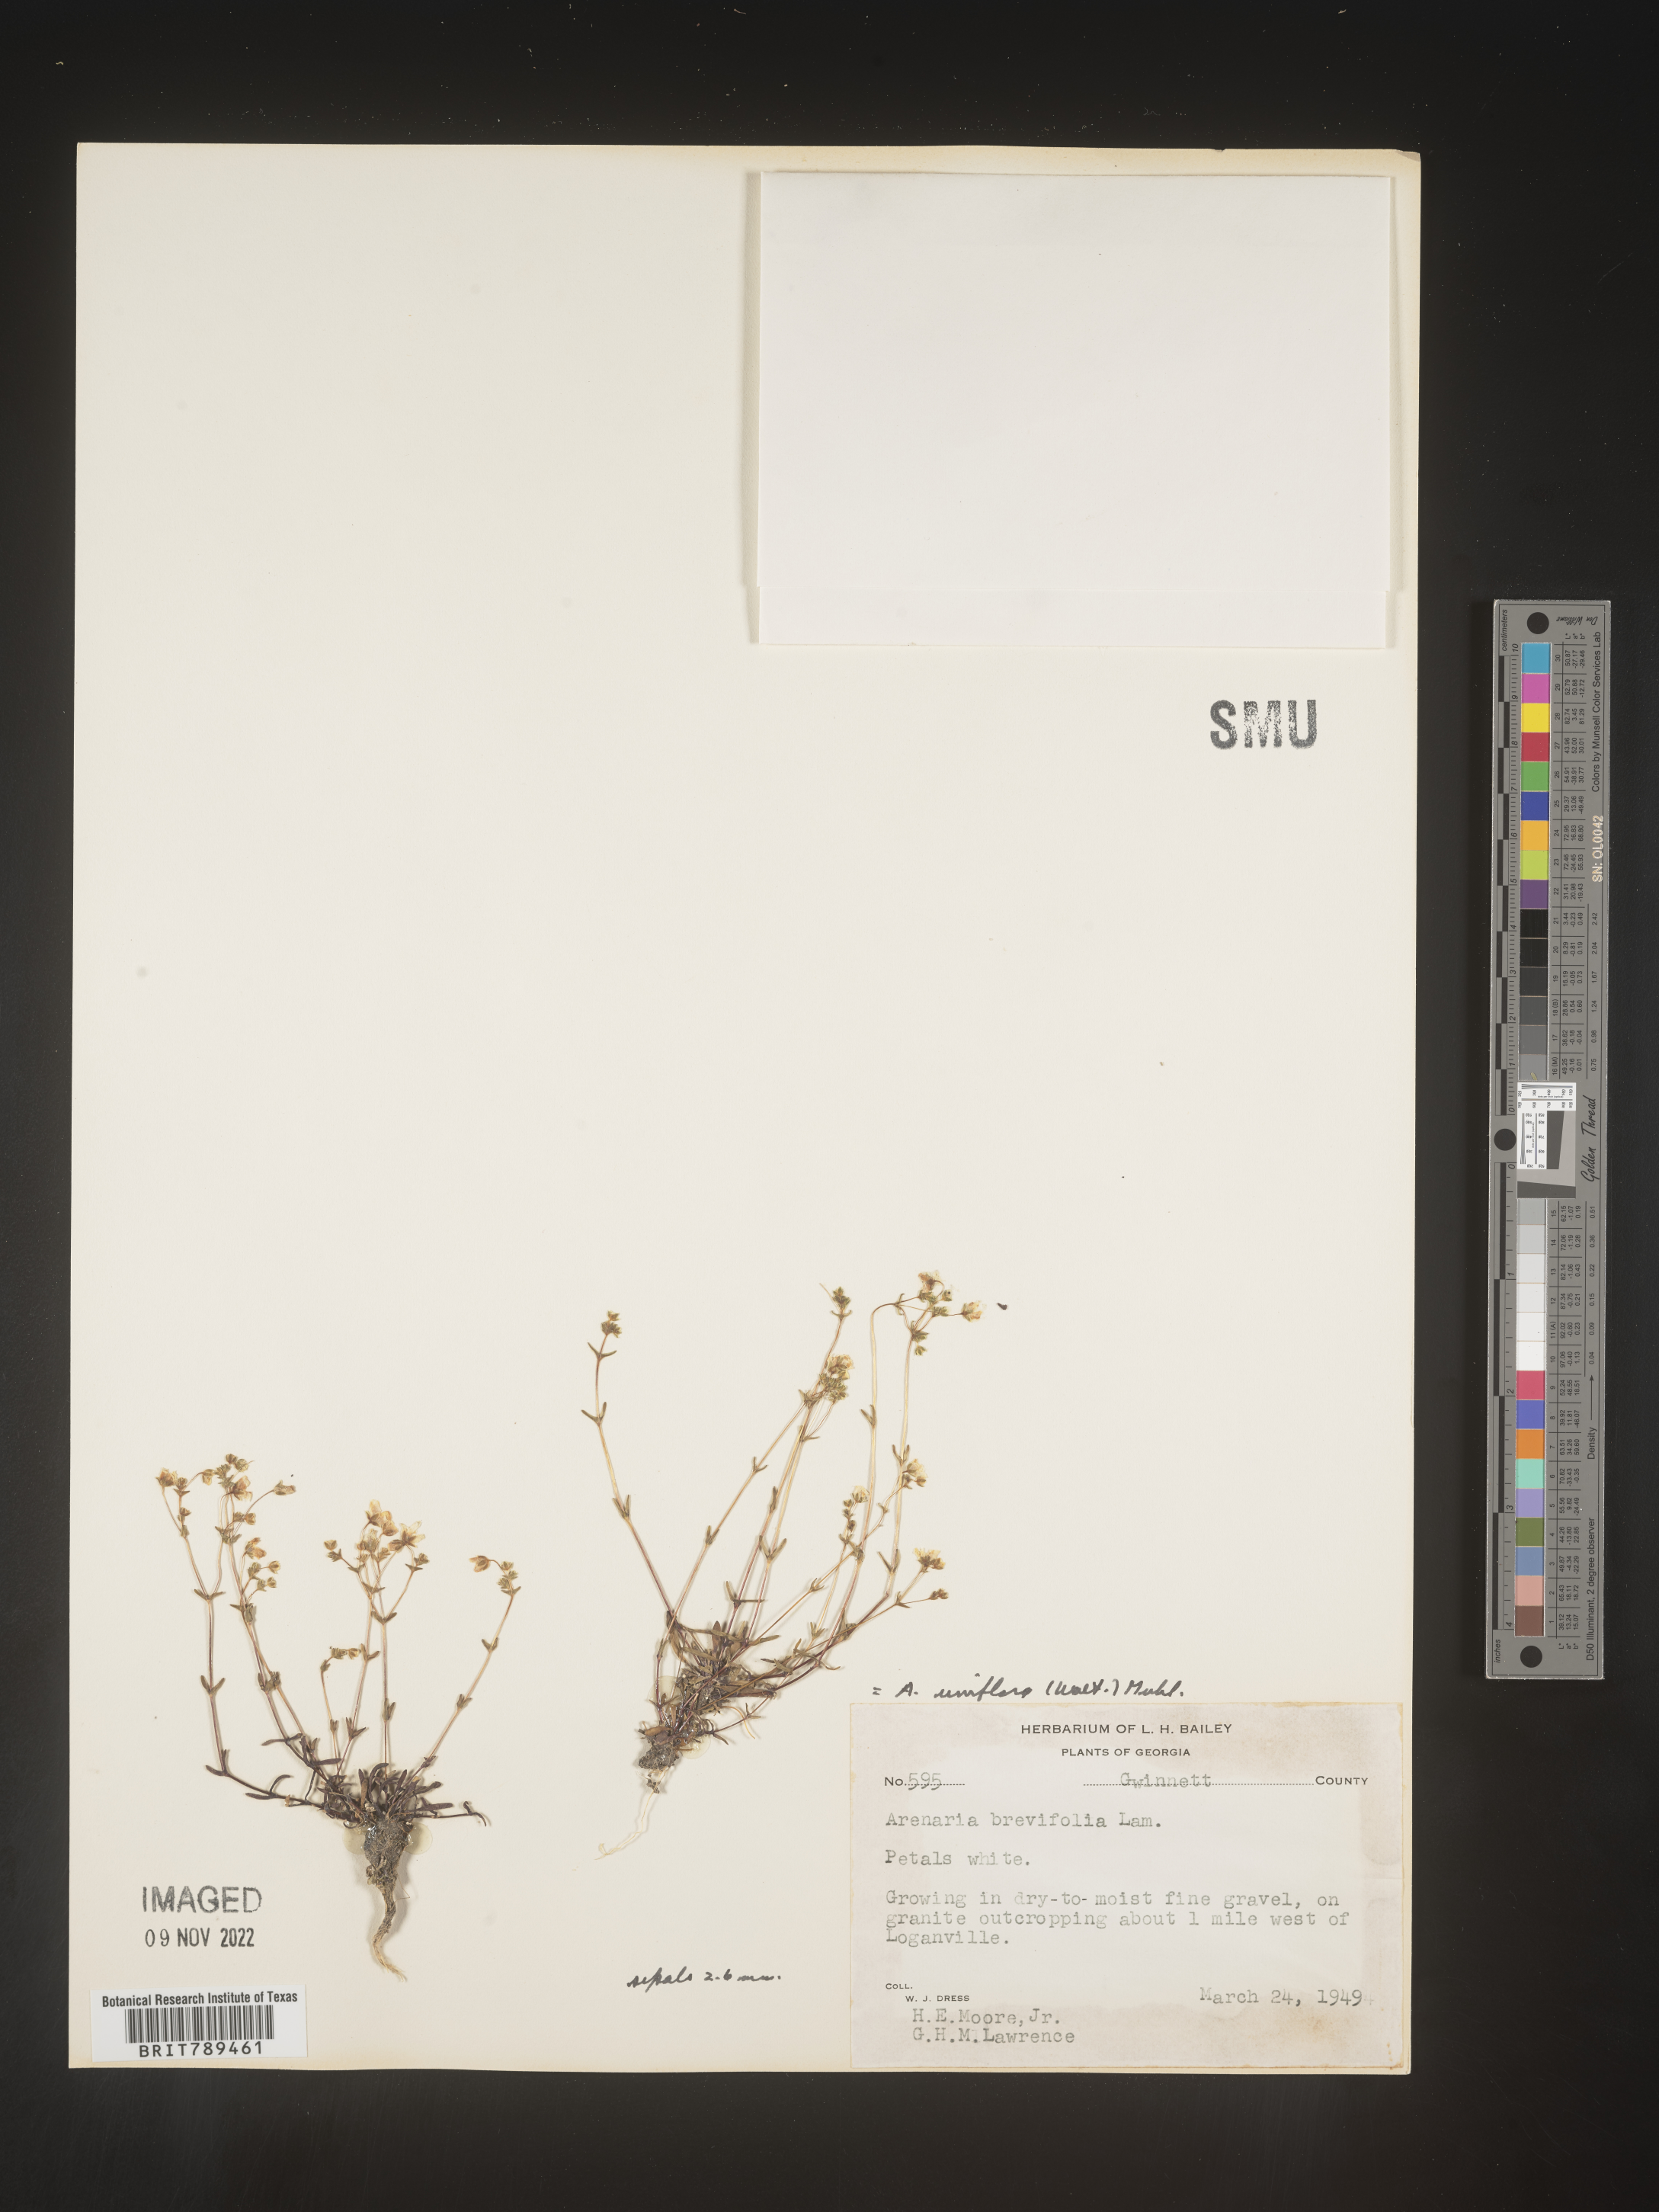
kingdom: Plantae
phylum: Tracheophyta
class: Magnoliopsida
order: Caryophyllales
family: Caryophyllaceae
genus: Arenaria
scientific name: Arenaria
